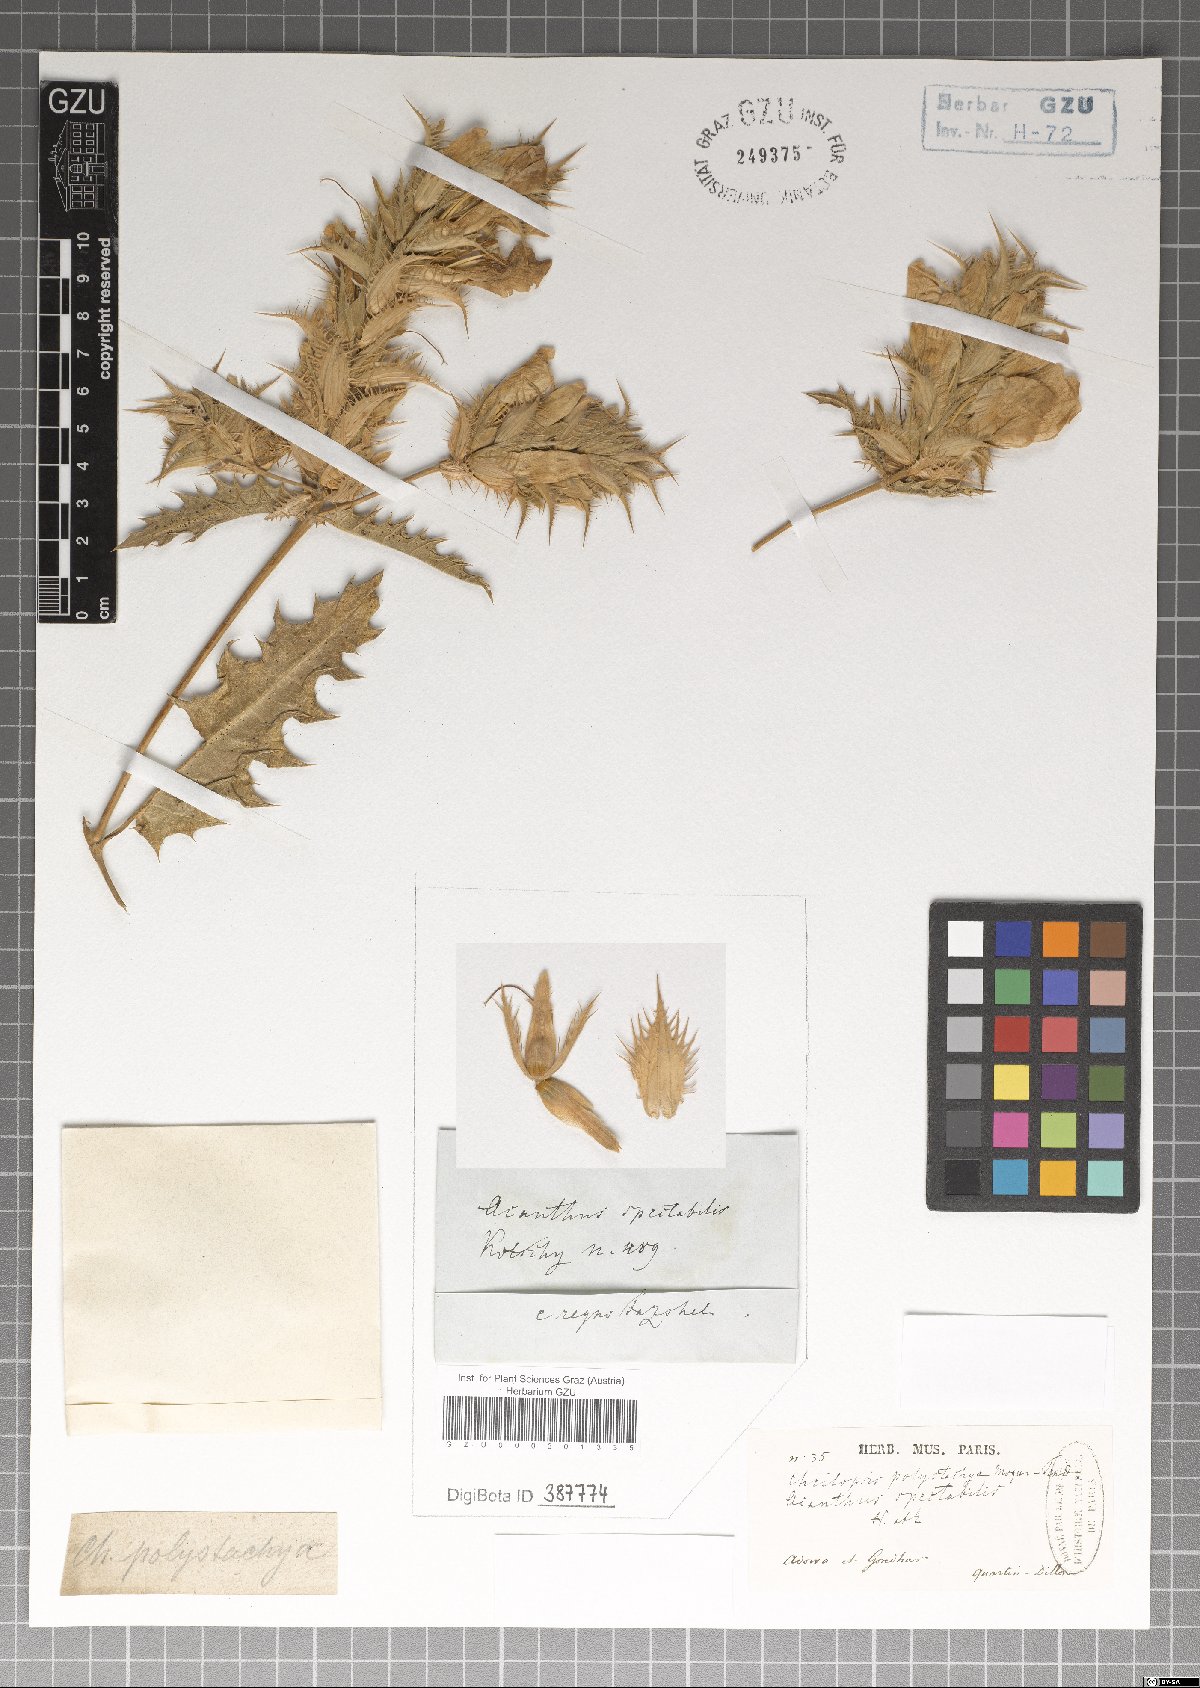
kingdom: Plantae
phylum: Tracheophyta
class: Magnoliopsida
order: Lamiales
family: Acanthaceae
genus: Acanthus
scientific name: Acanthus arboreus
